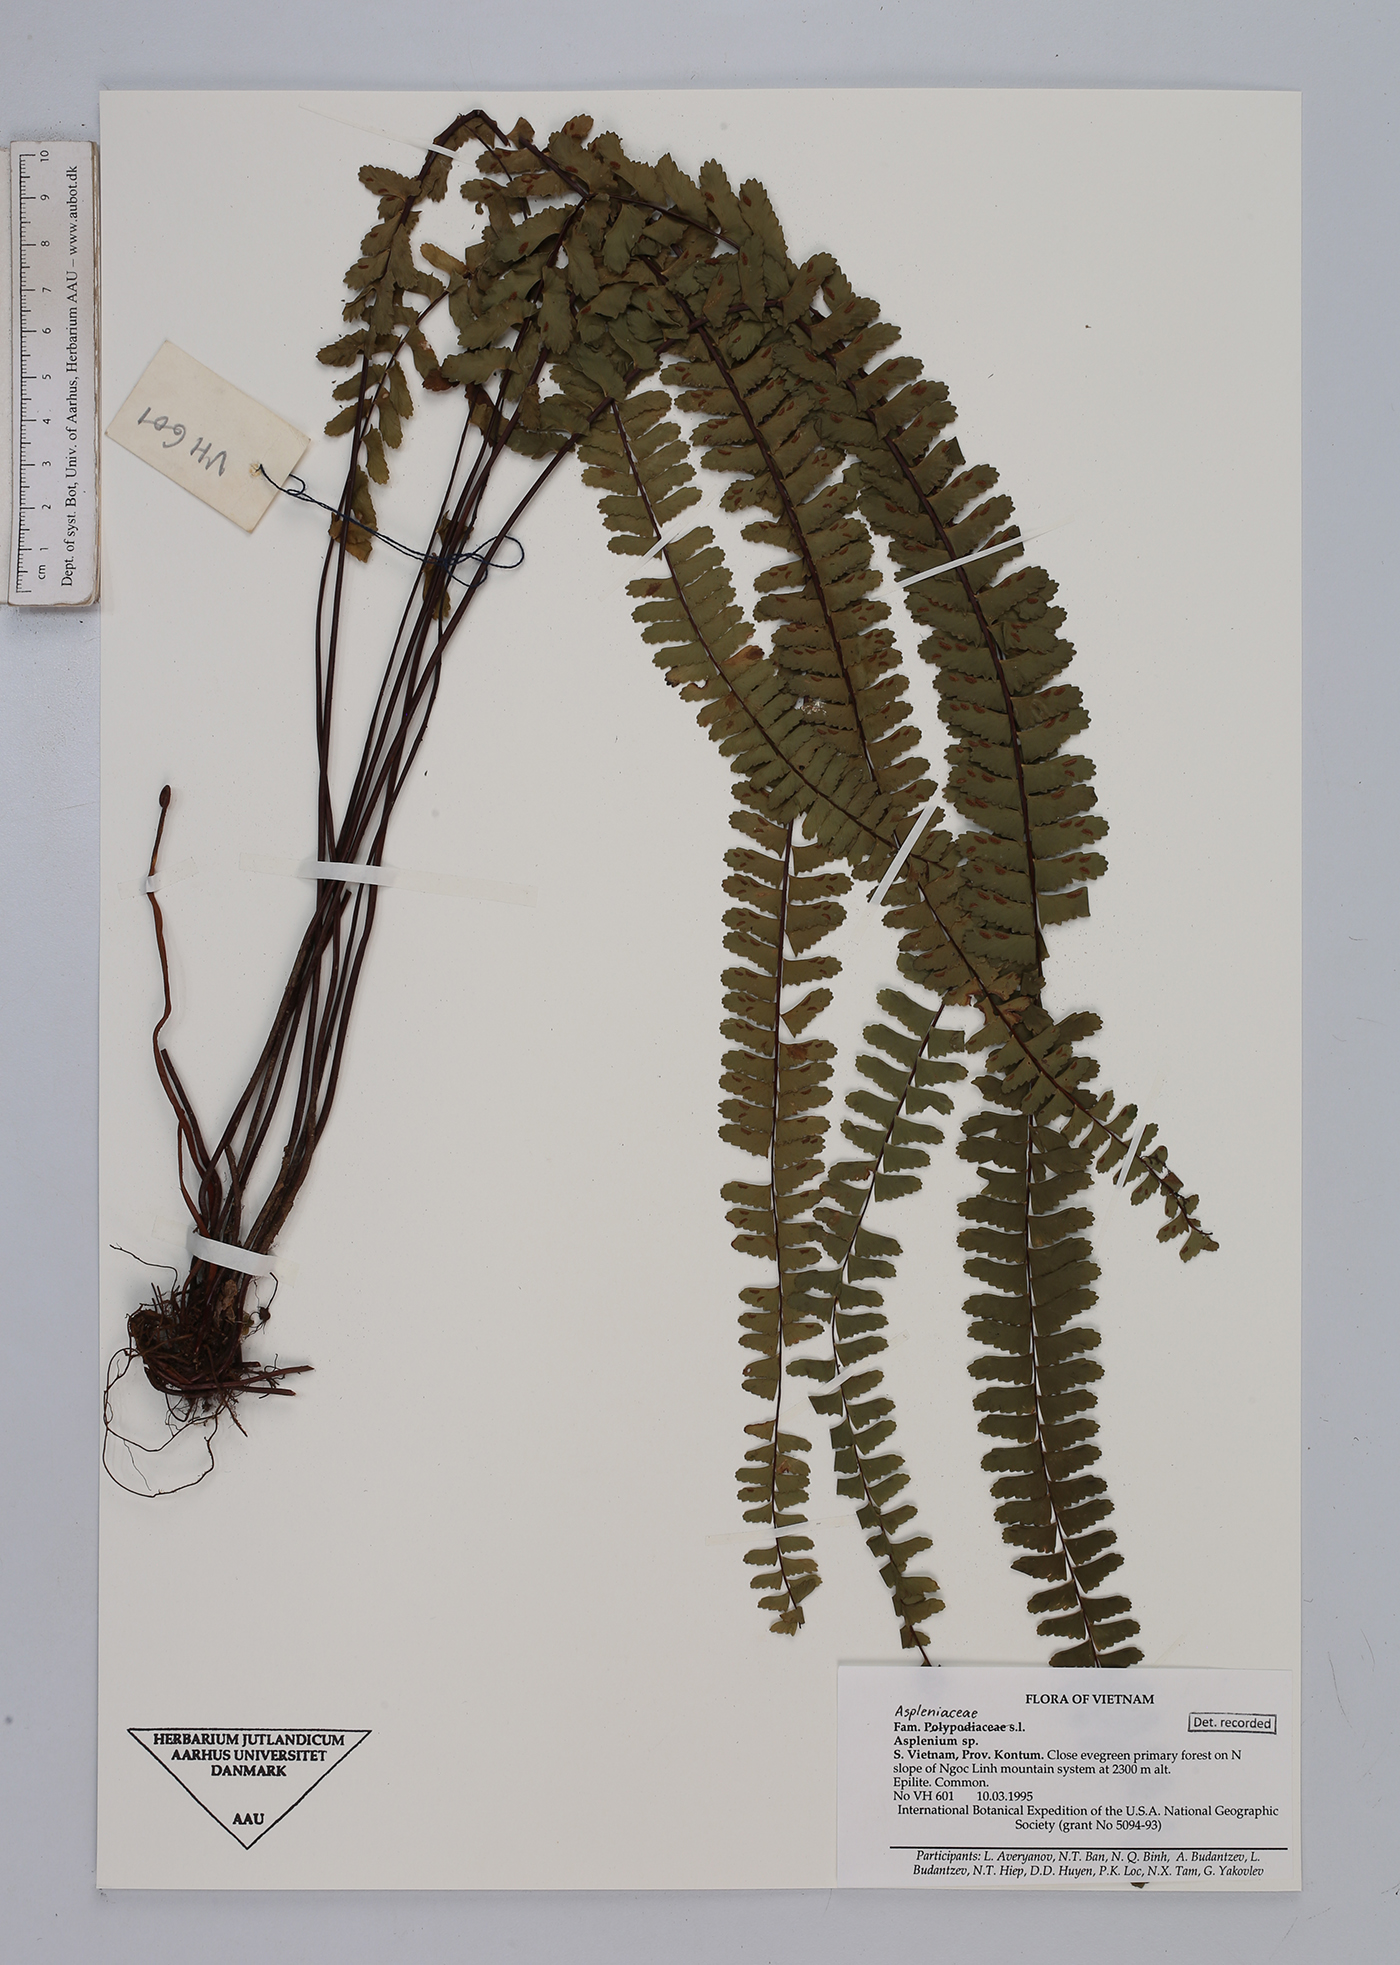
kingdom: Plantae
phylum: Tracheophyta
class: Polypodiopsida
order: Polypodiales
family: Aspleniaceae
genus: Asplenium
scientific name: Asplenium
